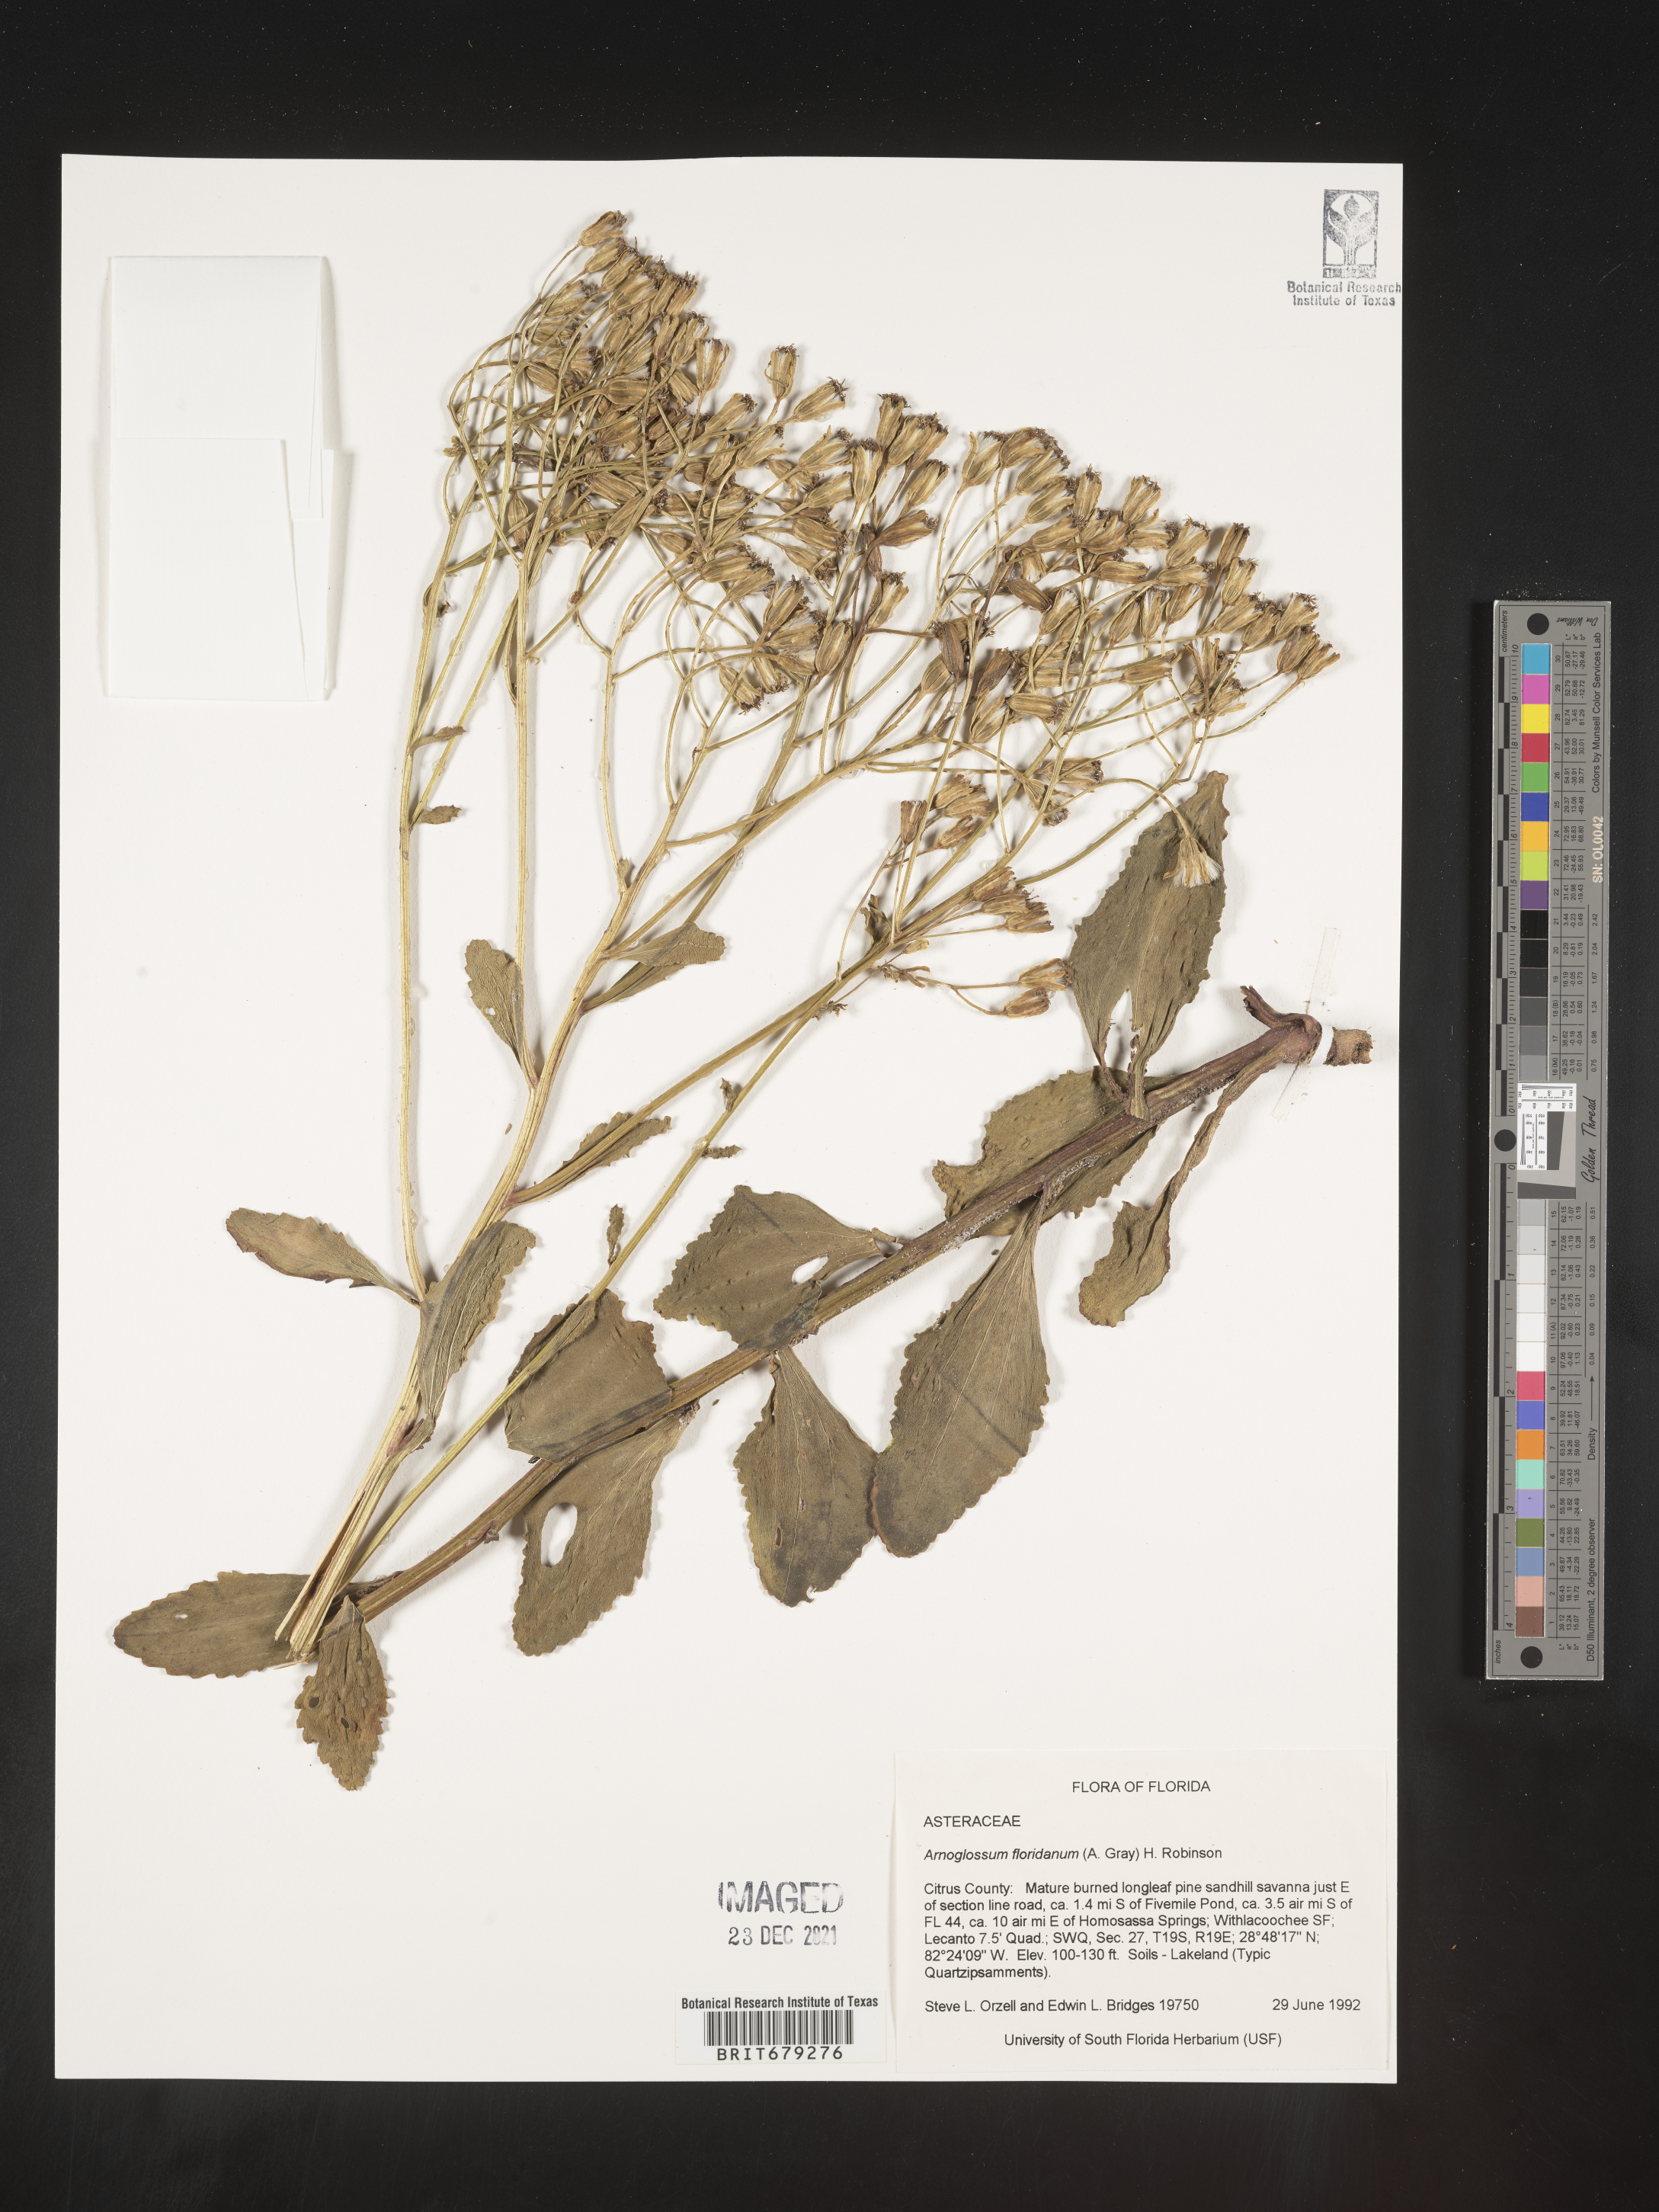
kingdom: Plantae
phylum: Tracheophyta
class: Magnoliopsida
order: Asterales
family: Asteraceae
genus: Arnoglossum
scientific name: Arnoglossum floridanum
